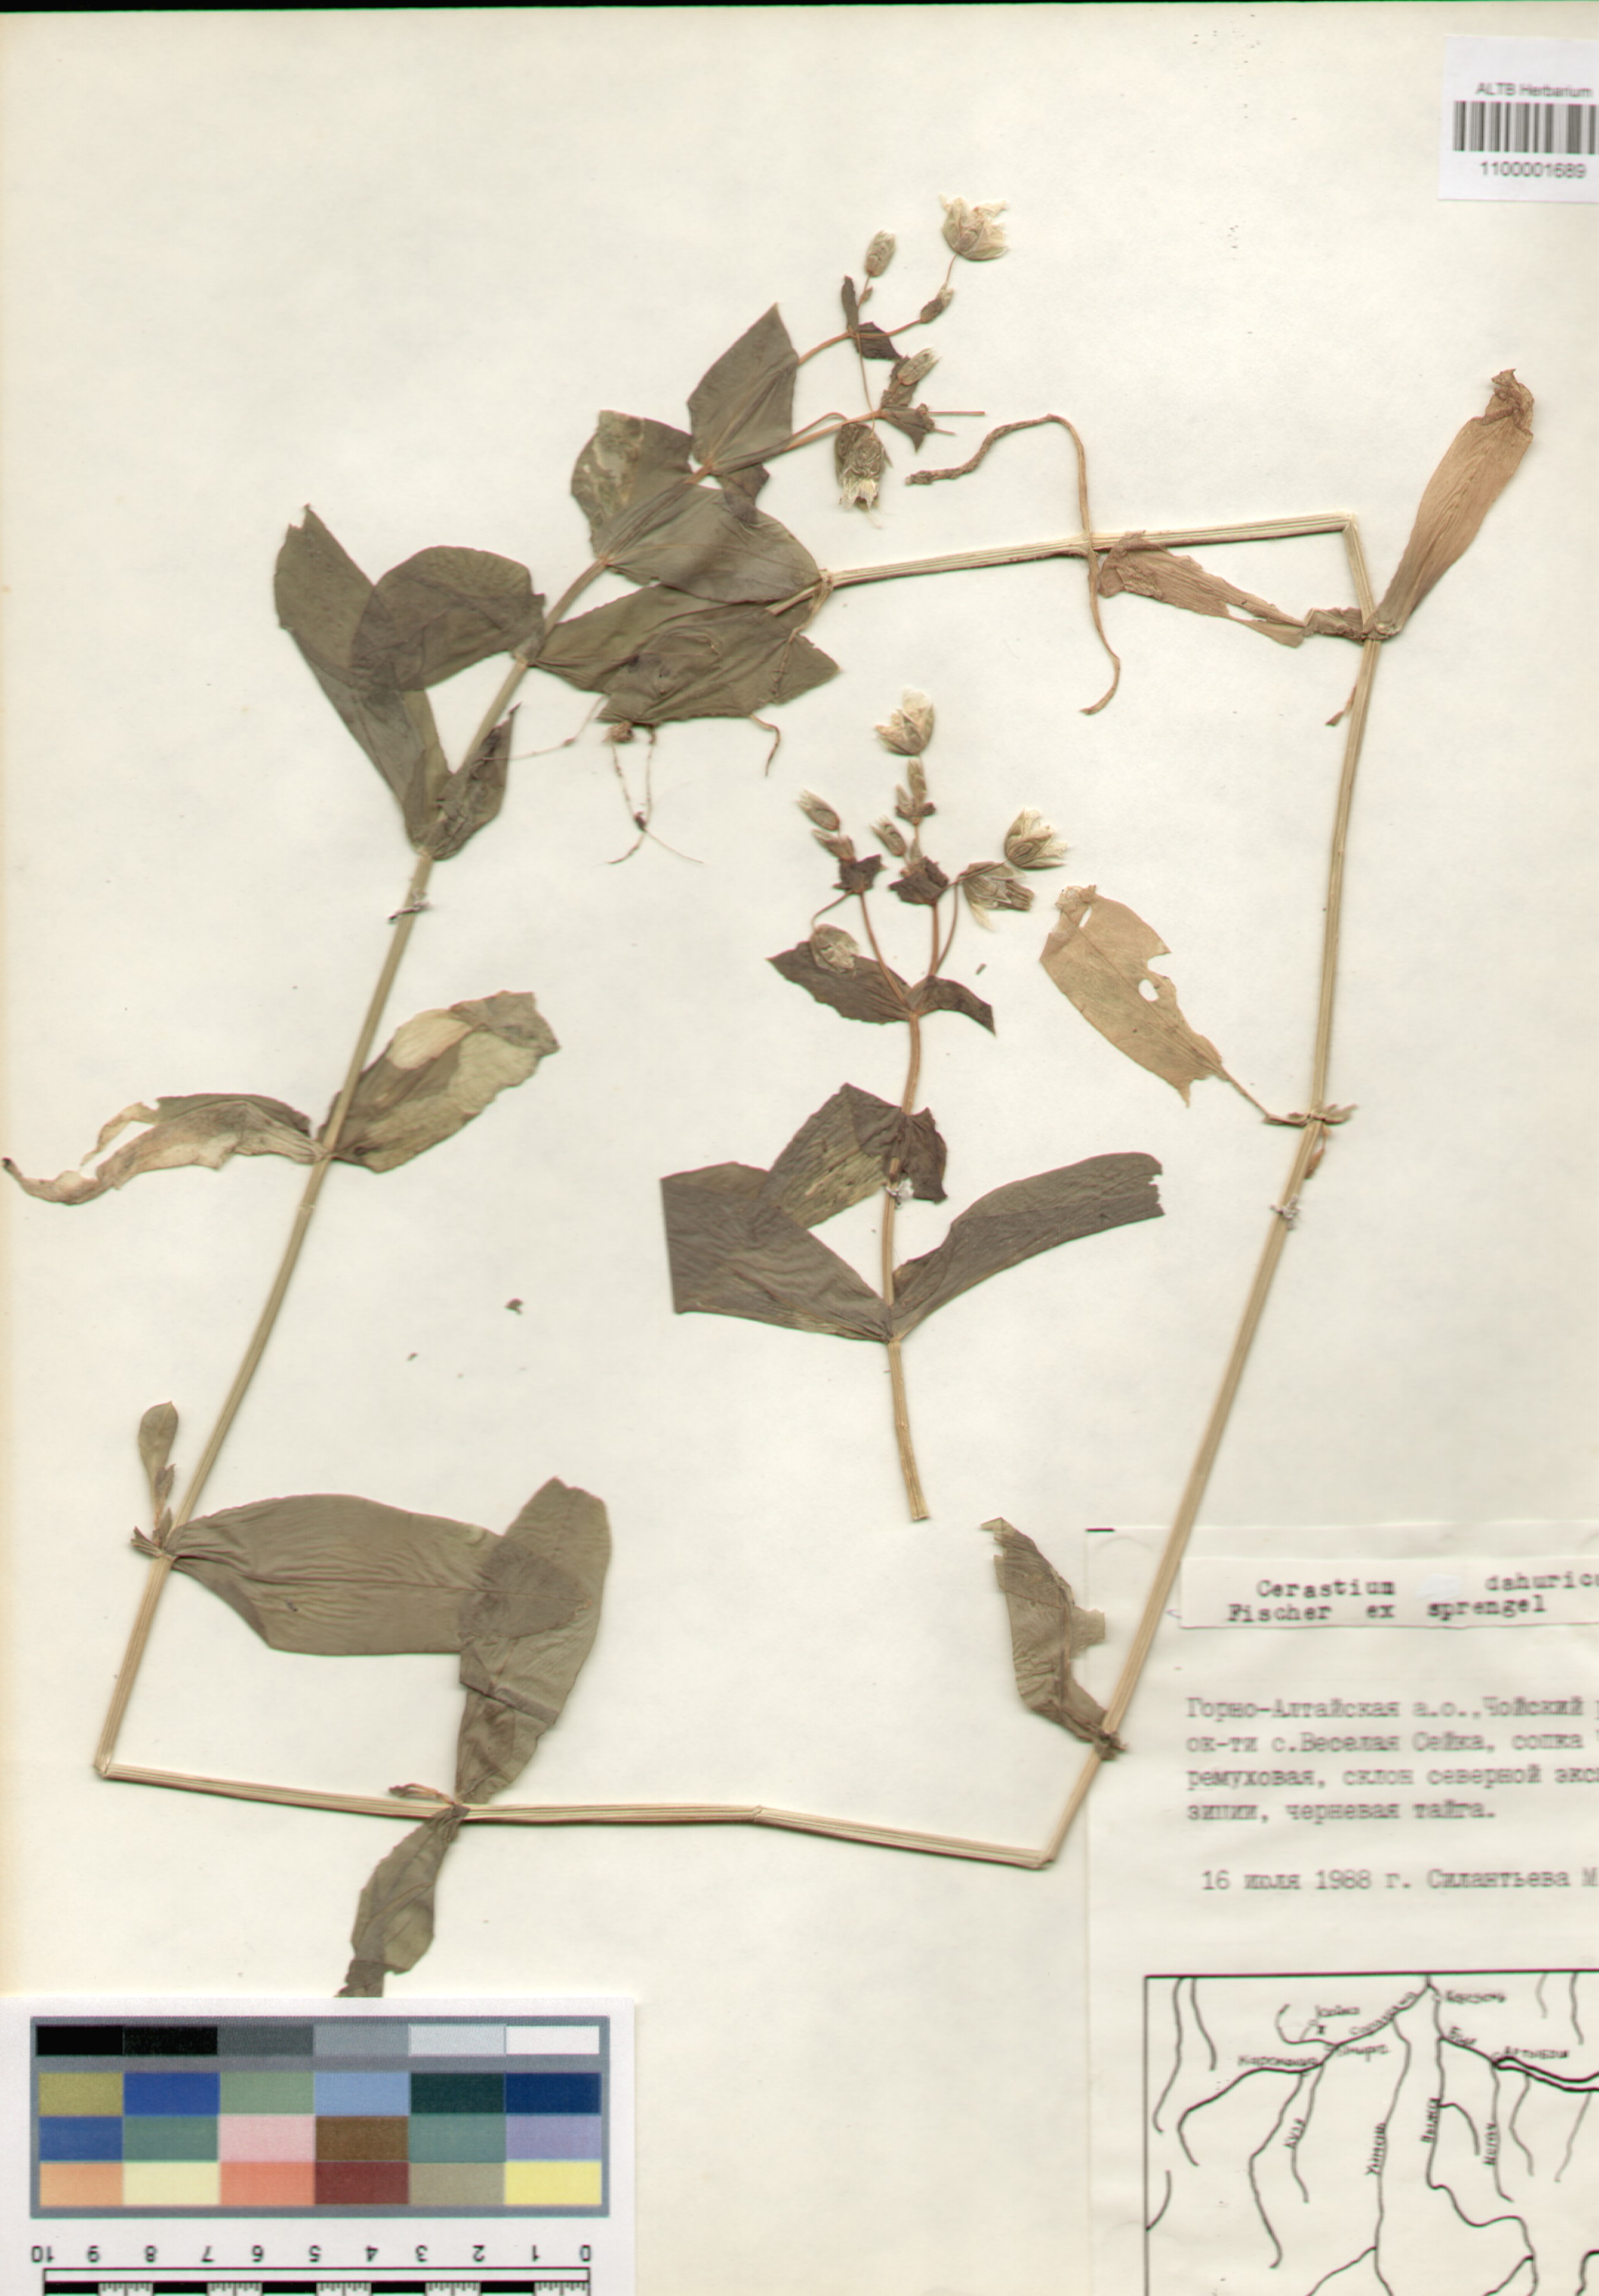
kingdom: Plantae
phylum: Tracheophyta
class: Magnoliopsida
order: Caryophyllales
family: Caryophyllaceae
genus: Dichodon
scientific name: Dichodon davuricum
